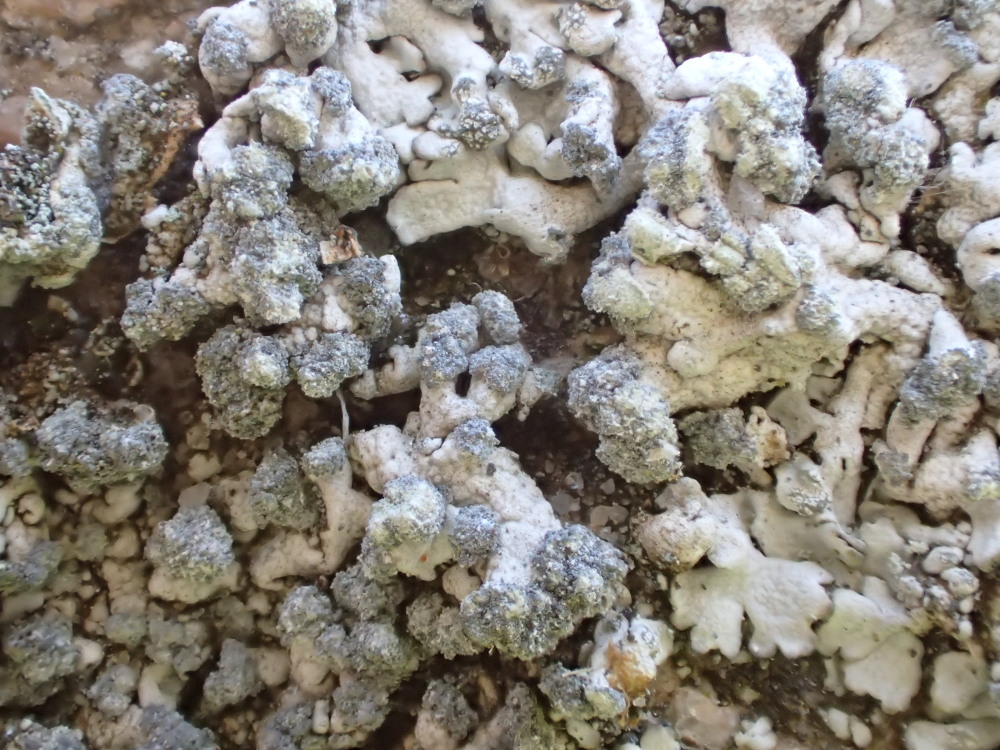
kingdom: Fungi
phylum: Ascomycota
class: Lecanoromycetes
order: Caliciales
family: Physciaceae
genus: Physcia
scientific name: Physcia caesia
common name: blågrå rosetlav
